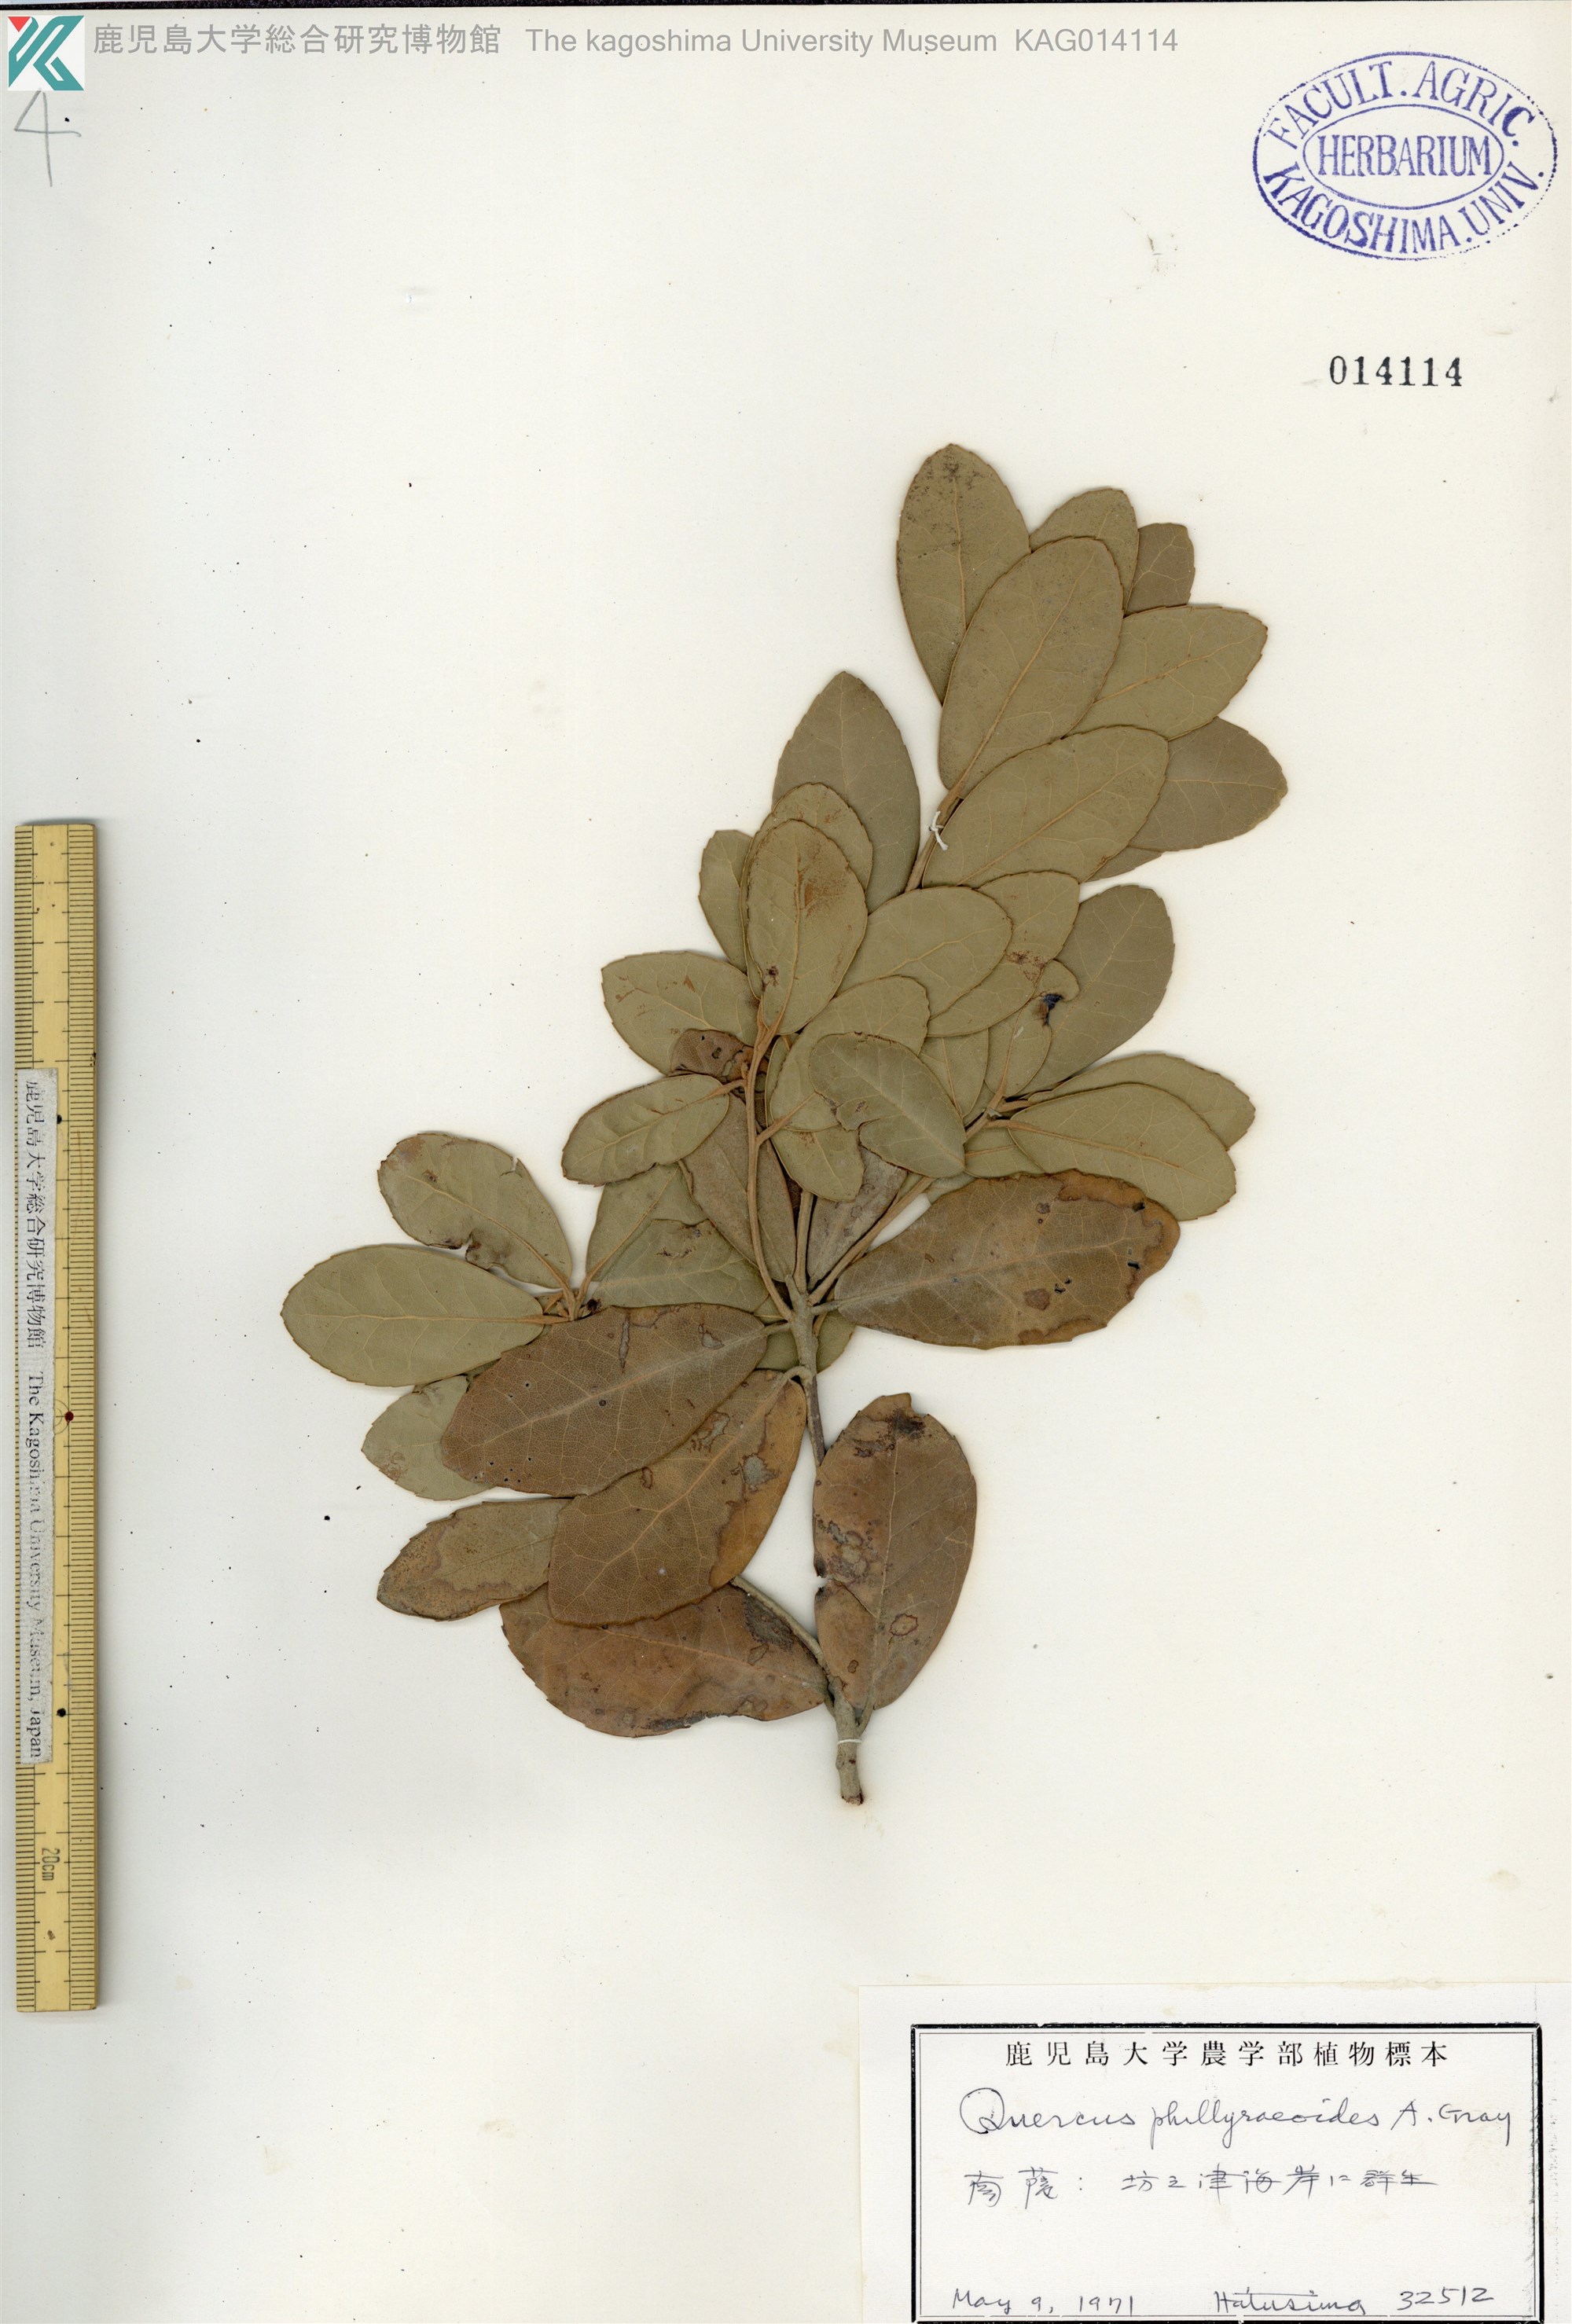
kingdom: Plantae
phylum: Tracheophyta
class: Magnoliopsida
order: Fagales
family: Fagaceae
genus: Quercus
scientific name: Quercus phillyraeoides
